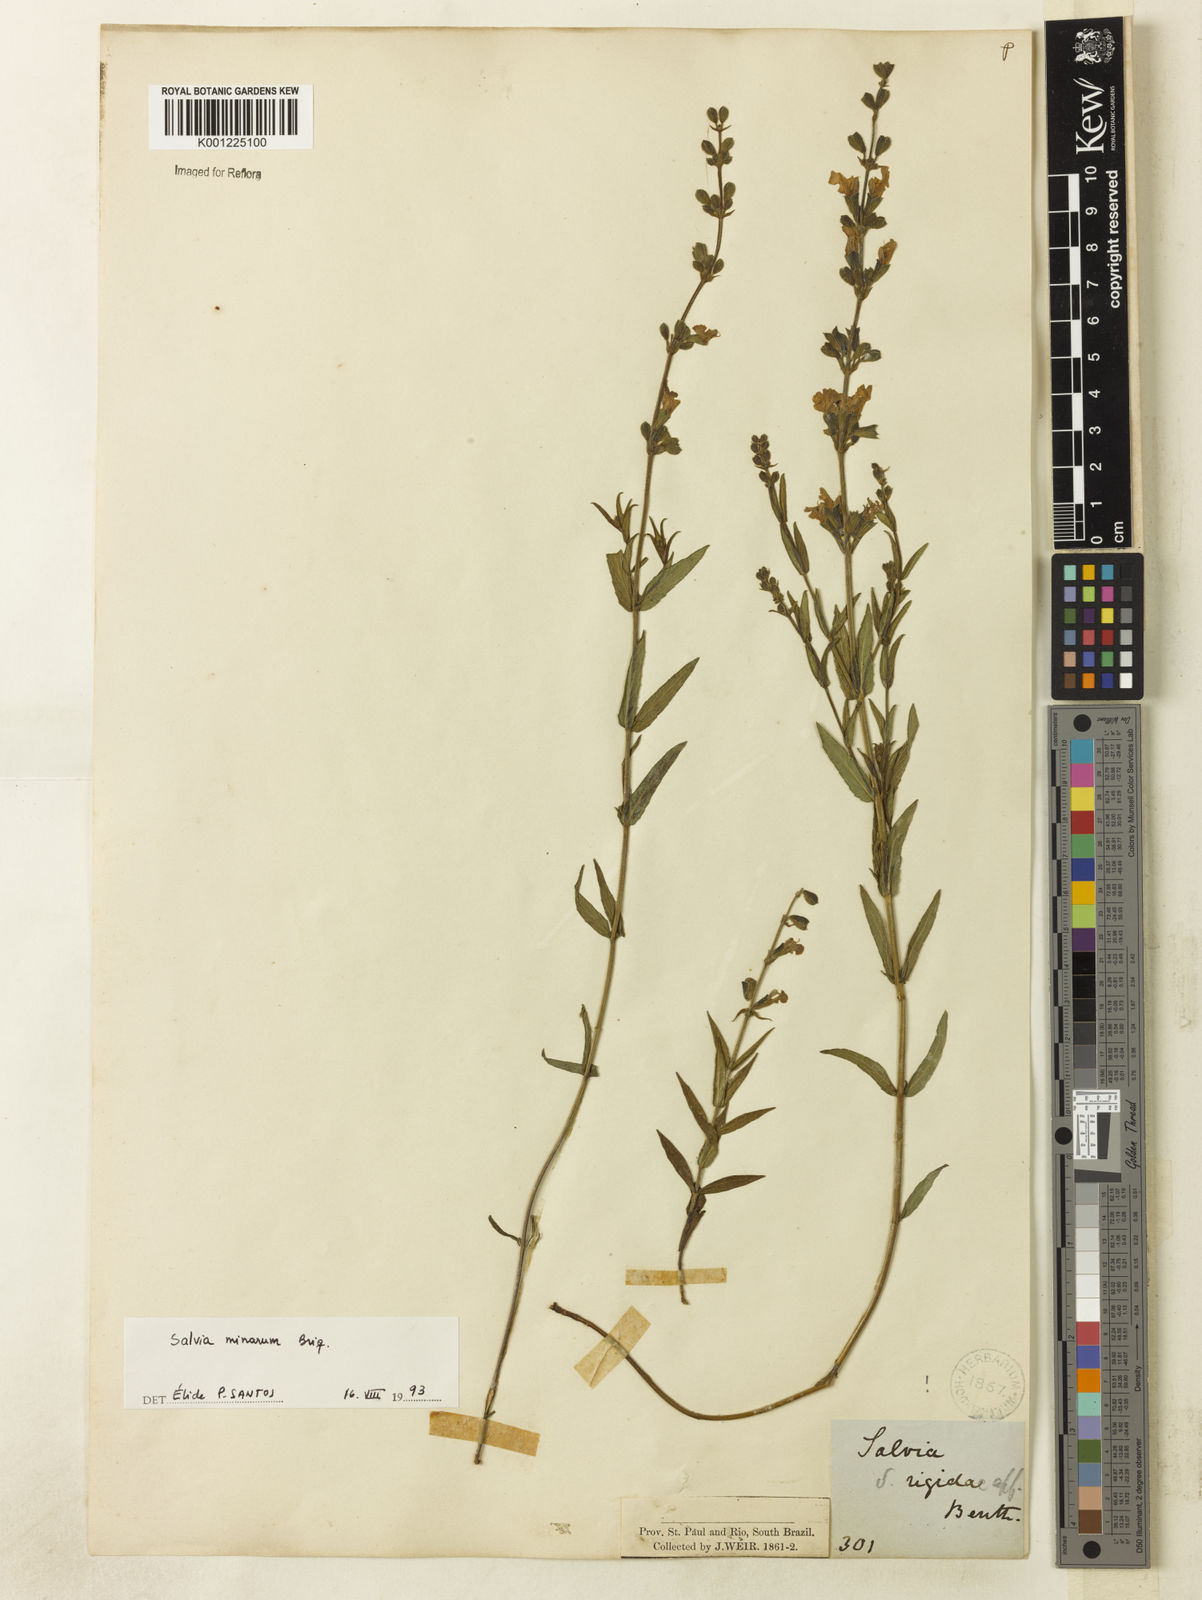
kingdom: Plantae
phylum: Tracheophyta
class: Magnoliopsida
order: Lamiales
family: Lamiaceae
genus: Salvia
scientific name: Salvia minarum
